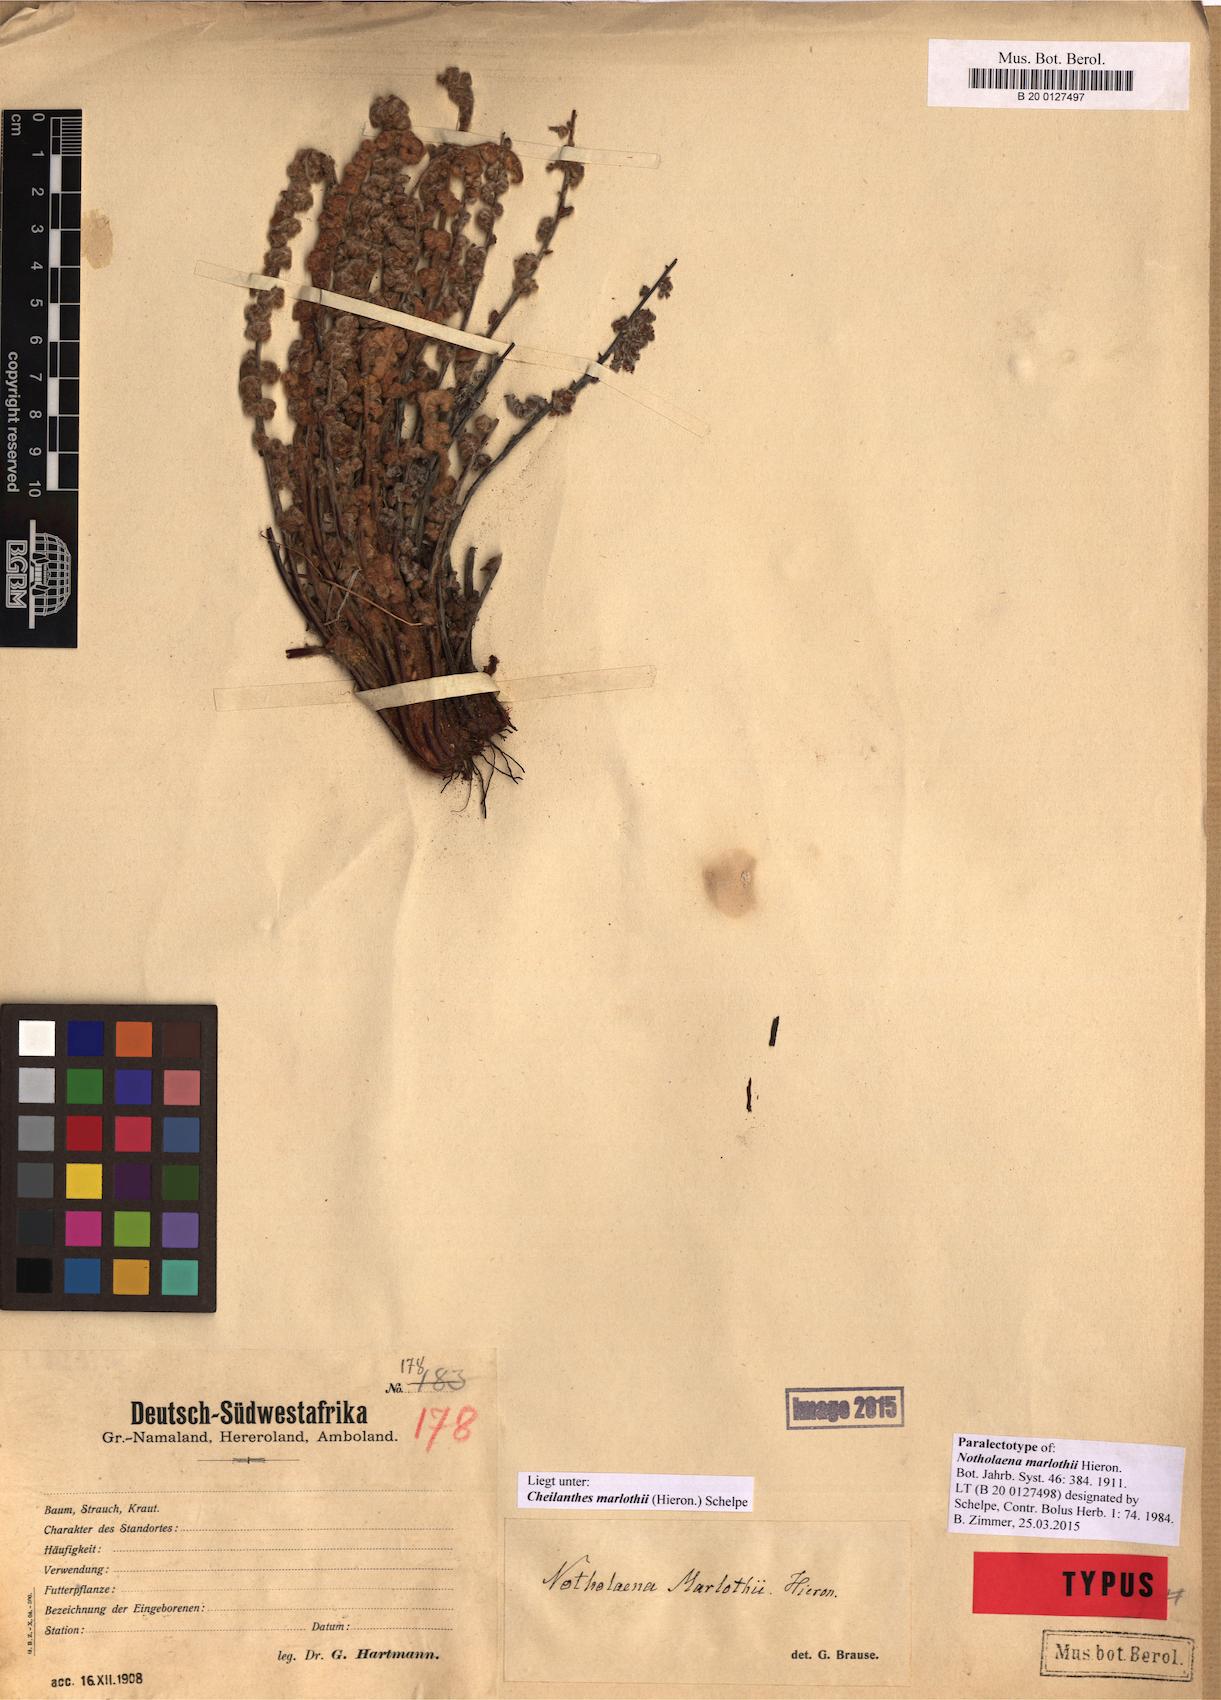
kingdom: Plantae
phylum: Tracheophyta
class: Polypodiopsida
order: Polypodiales
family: Pteridaceae
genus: Cheilanthes
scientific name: Cheilanthes marlothii
